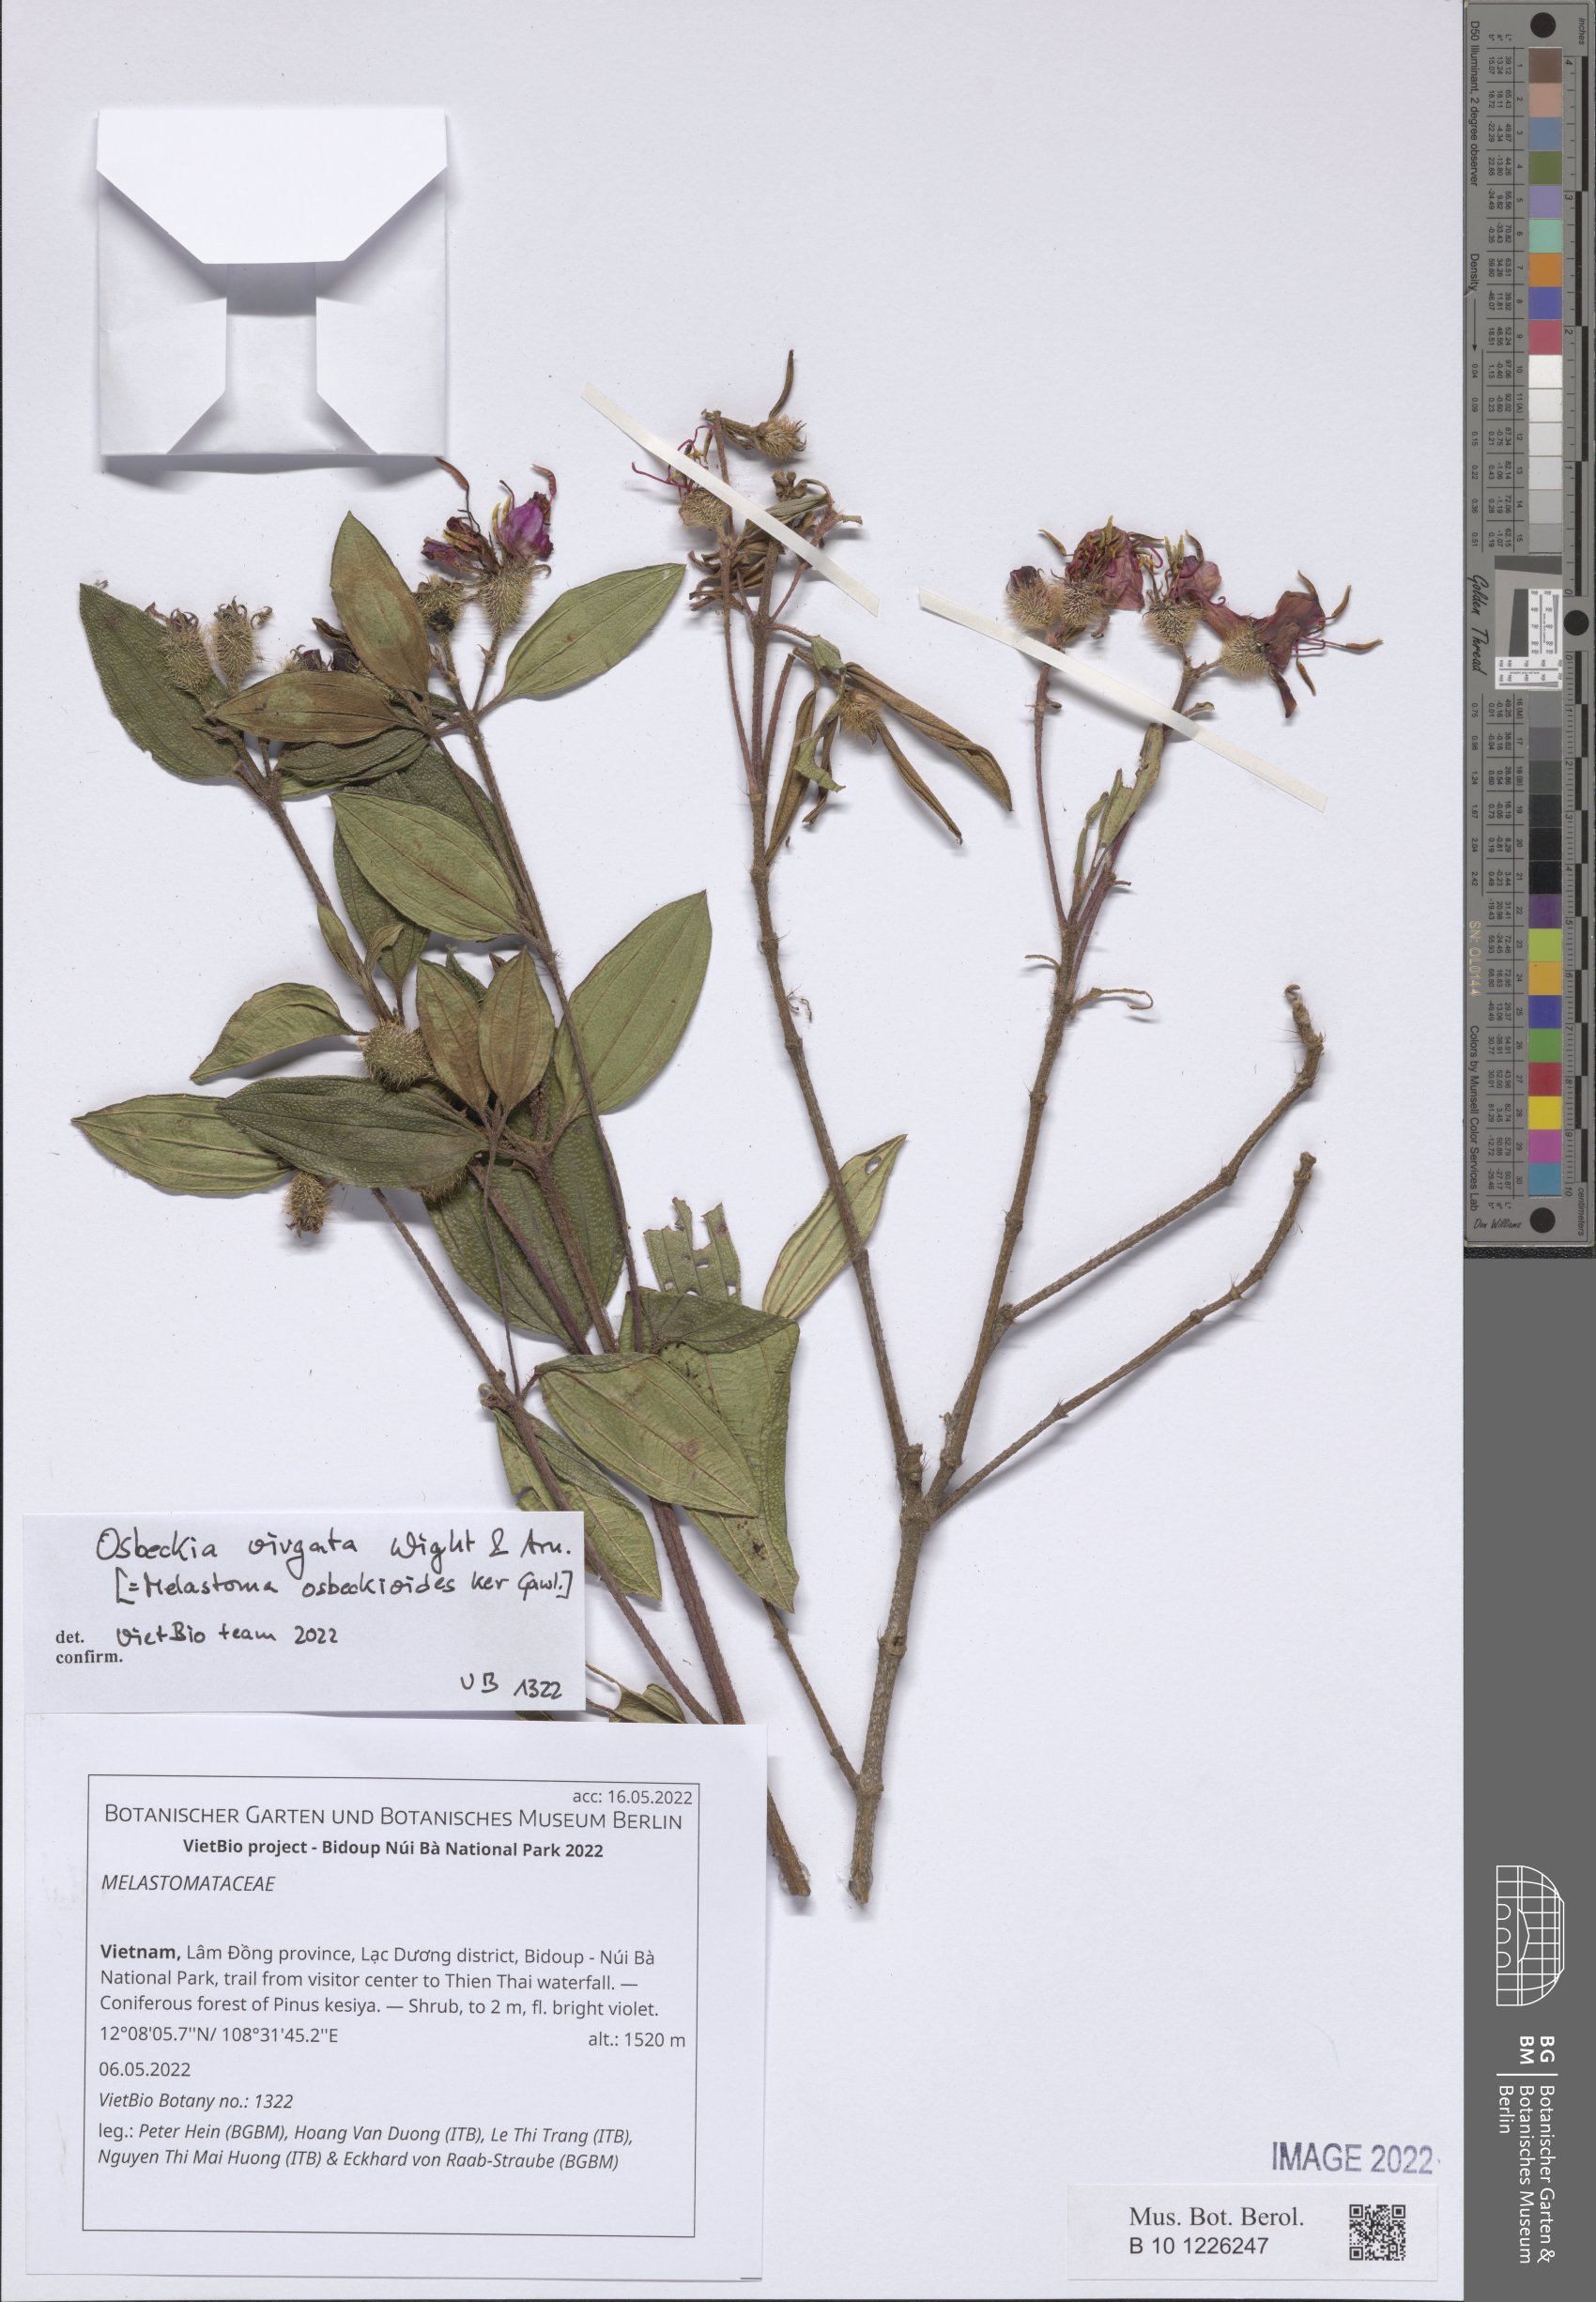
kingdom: Plantae
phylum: Tracheophyta
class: Magnoliopsida
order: Myrtales
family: Melastomataceae
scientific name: Melastomataceae
